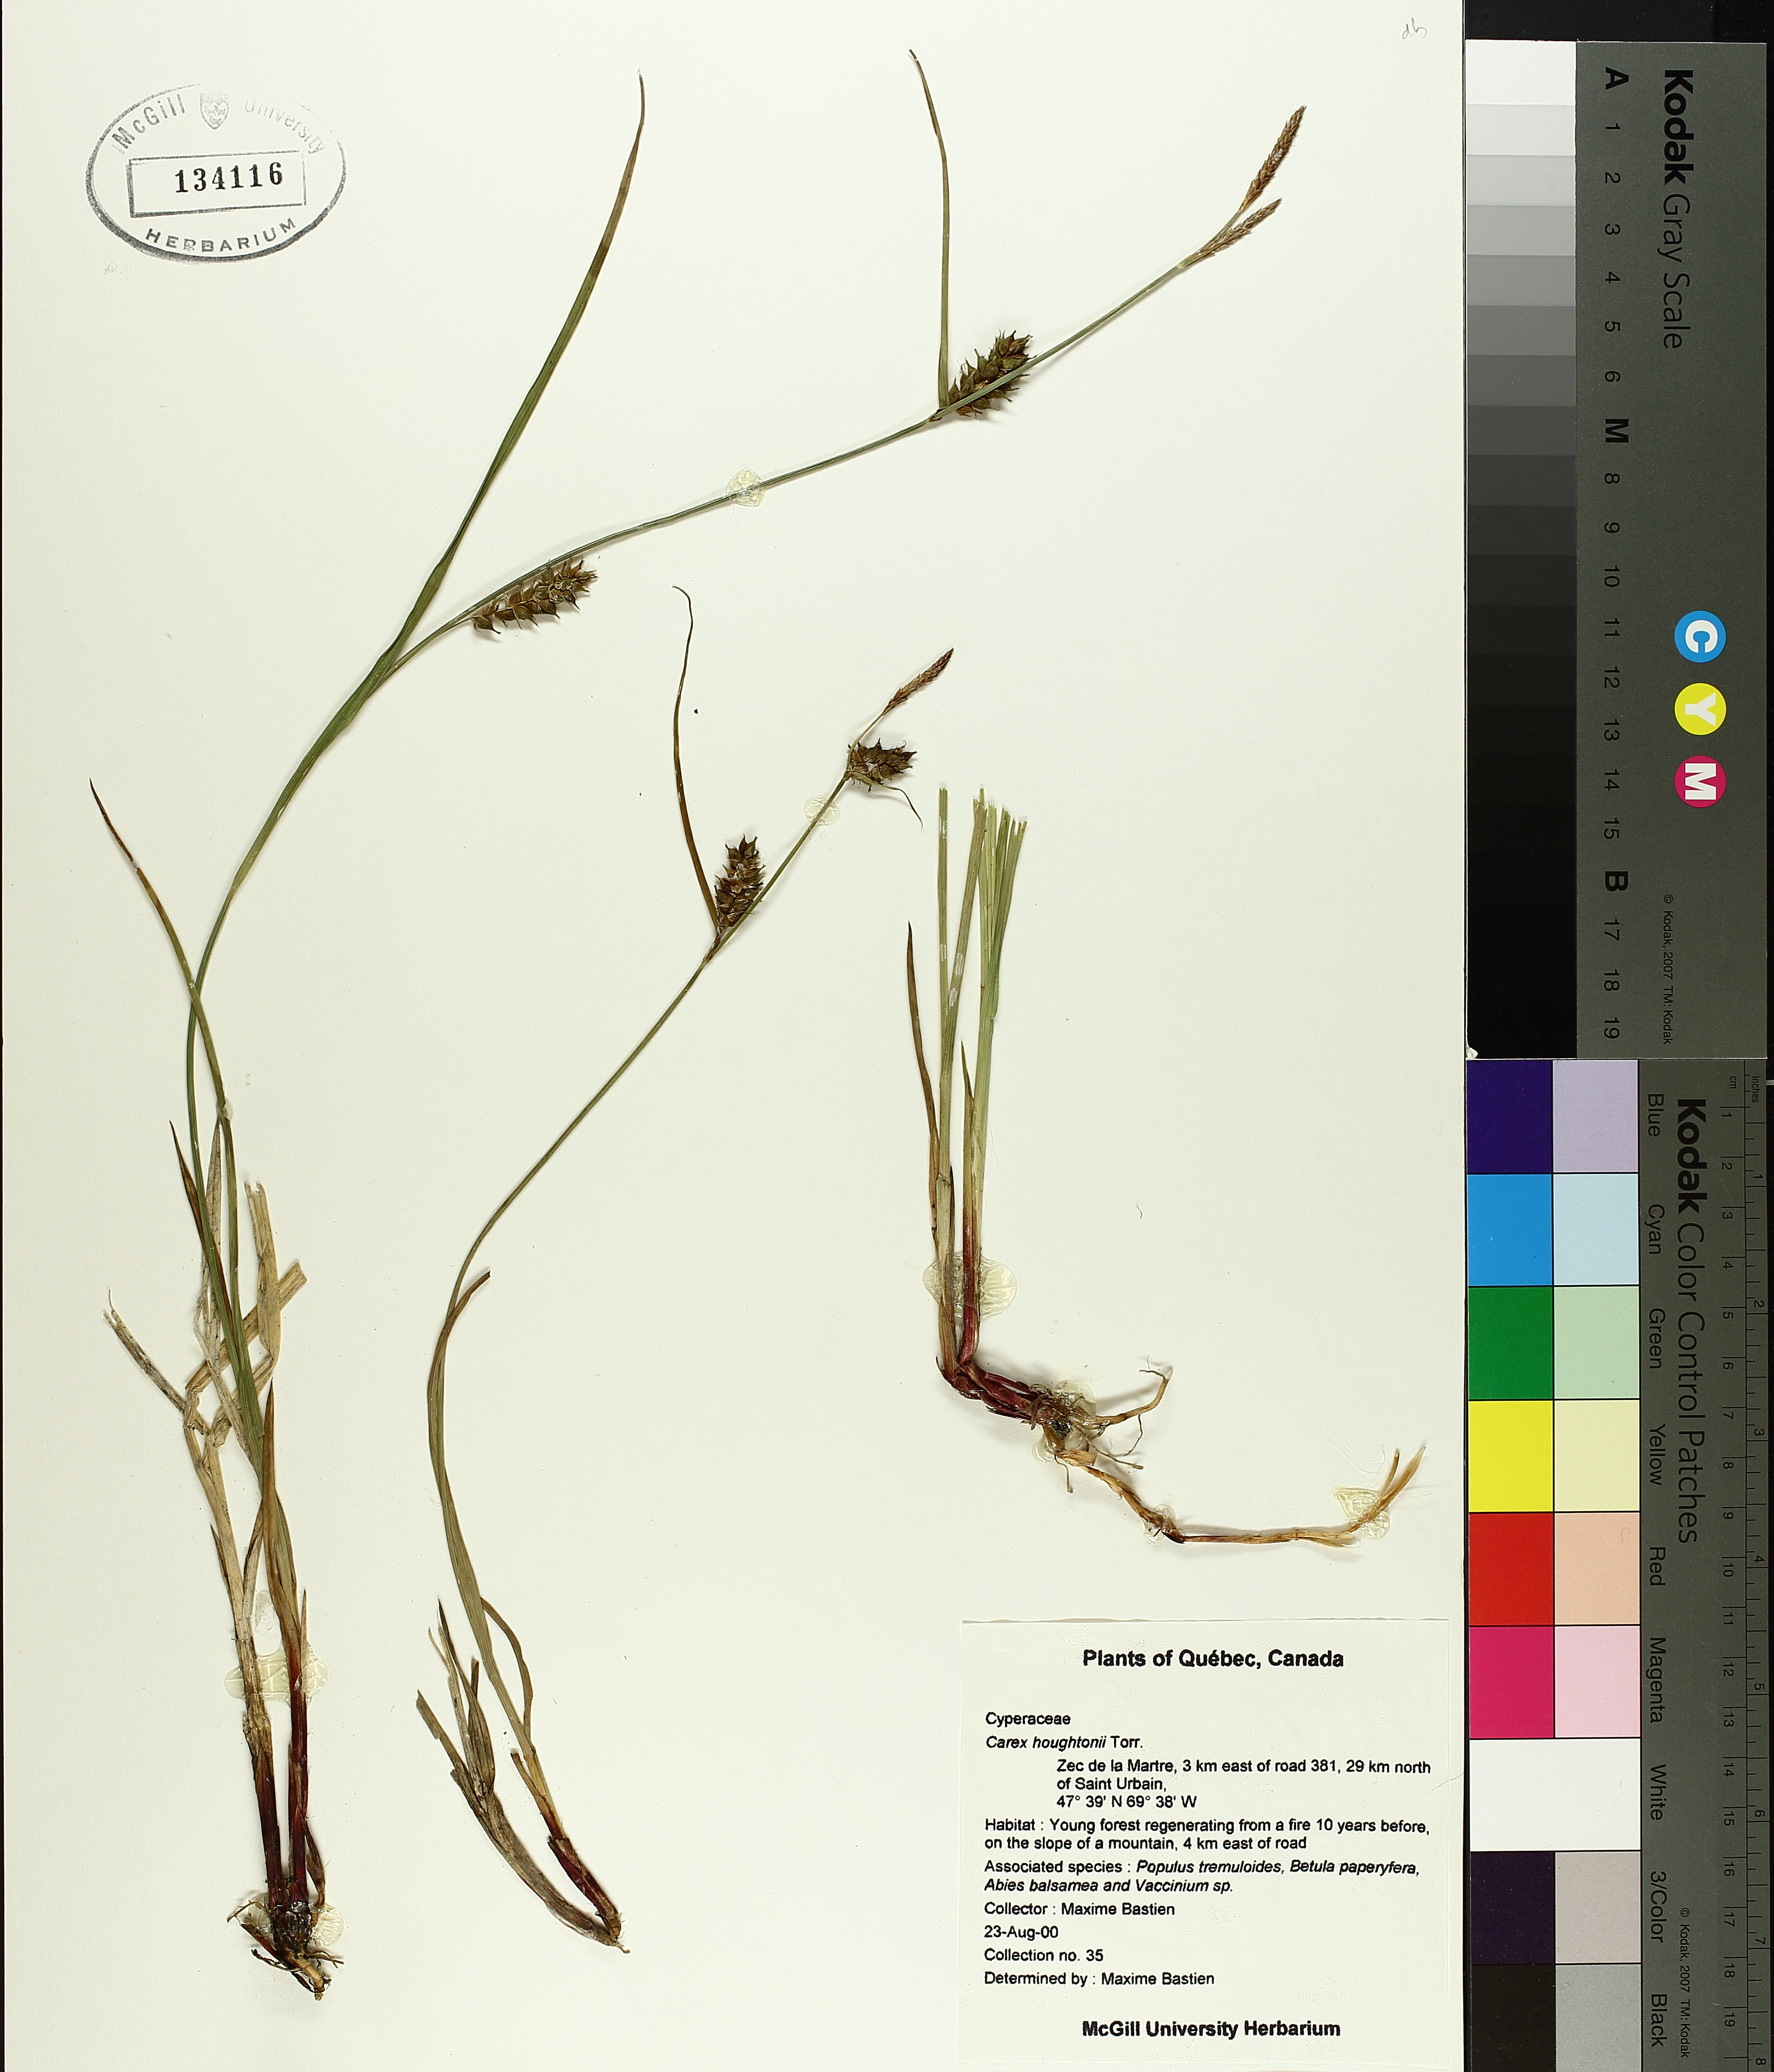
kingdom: Plantae
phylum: Tracheophyta
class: Liliopsida
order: Poales
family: Cyperaceae
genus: Carex
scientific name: Carex houghtoniana
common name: Houghton's sedge
